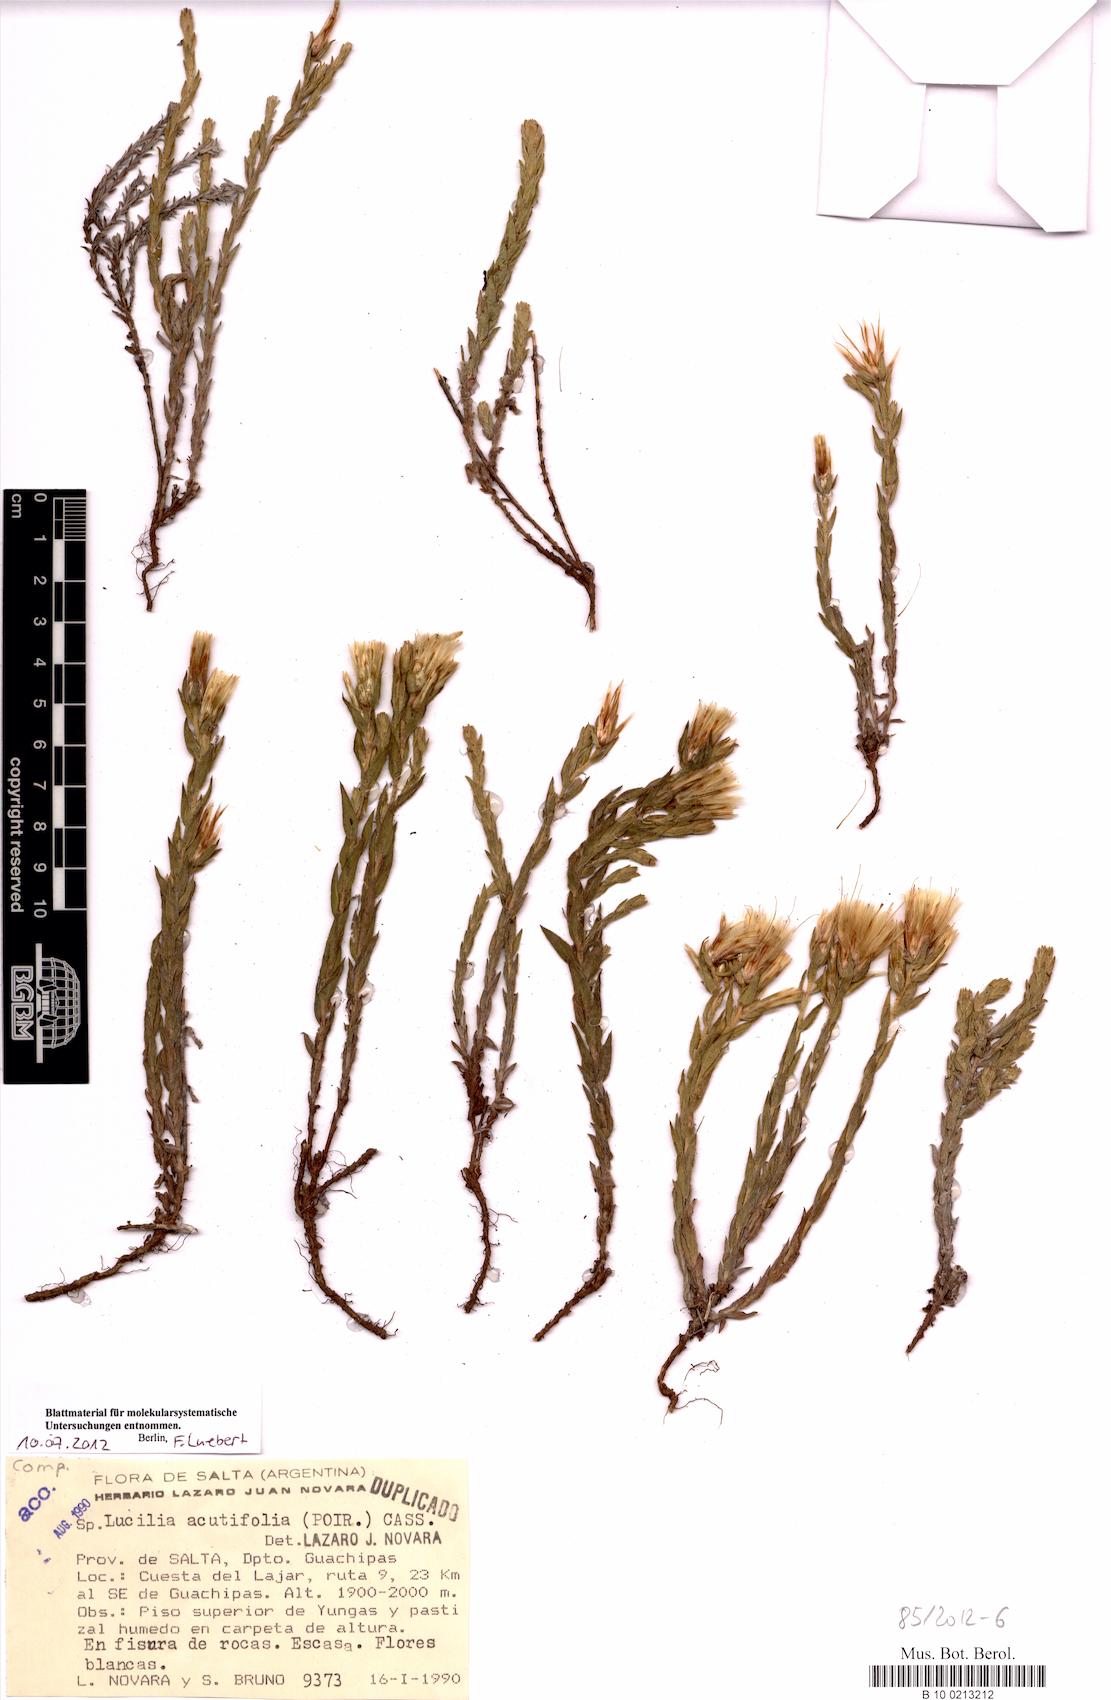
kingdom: Plantae
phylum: Tracheophyta
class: Magnoliopsida
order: Asterales
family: Asteraceae
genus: Lucilia
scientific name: Lucilia acutifolia
